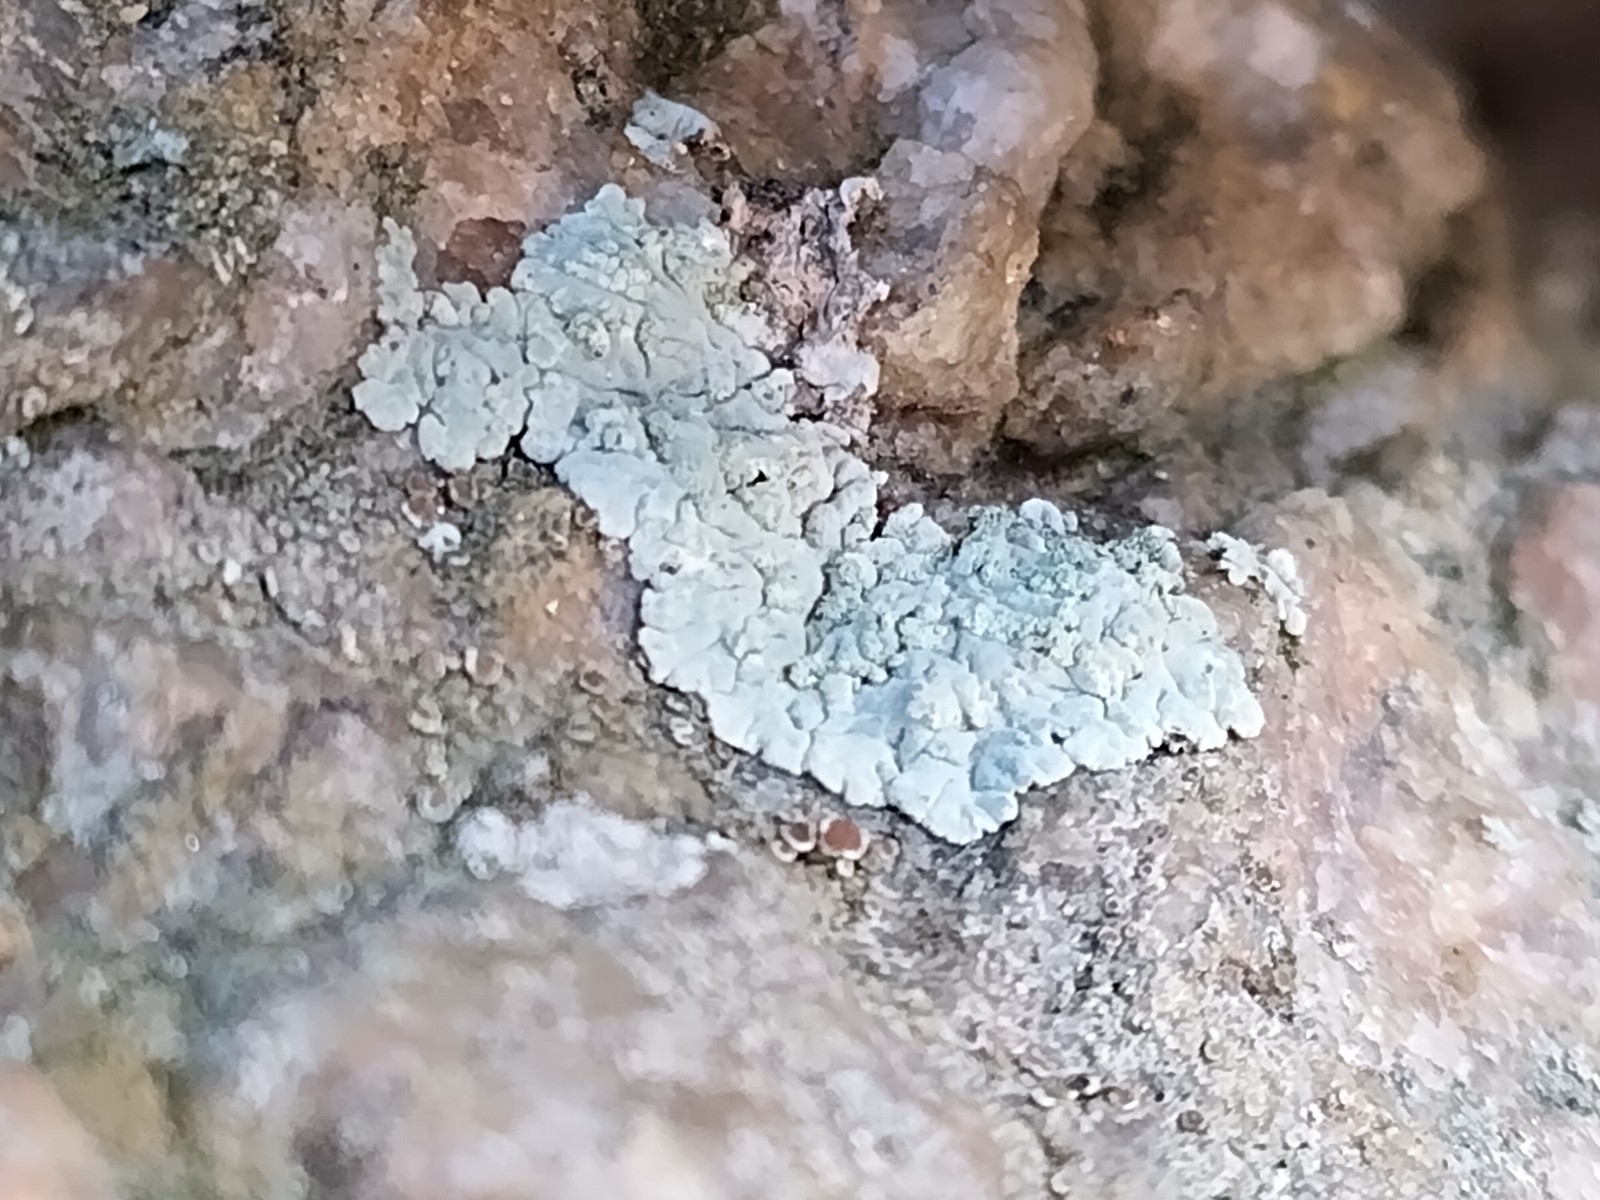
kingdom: Fungi
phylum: Ascomycota
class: Lecanoromycetes
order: Caliciales
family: Caliciaceae
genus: Diploicia
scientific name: Diploicia canescens
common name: grå støvrosetlav
